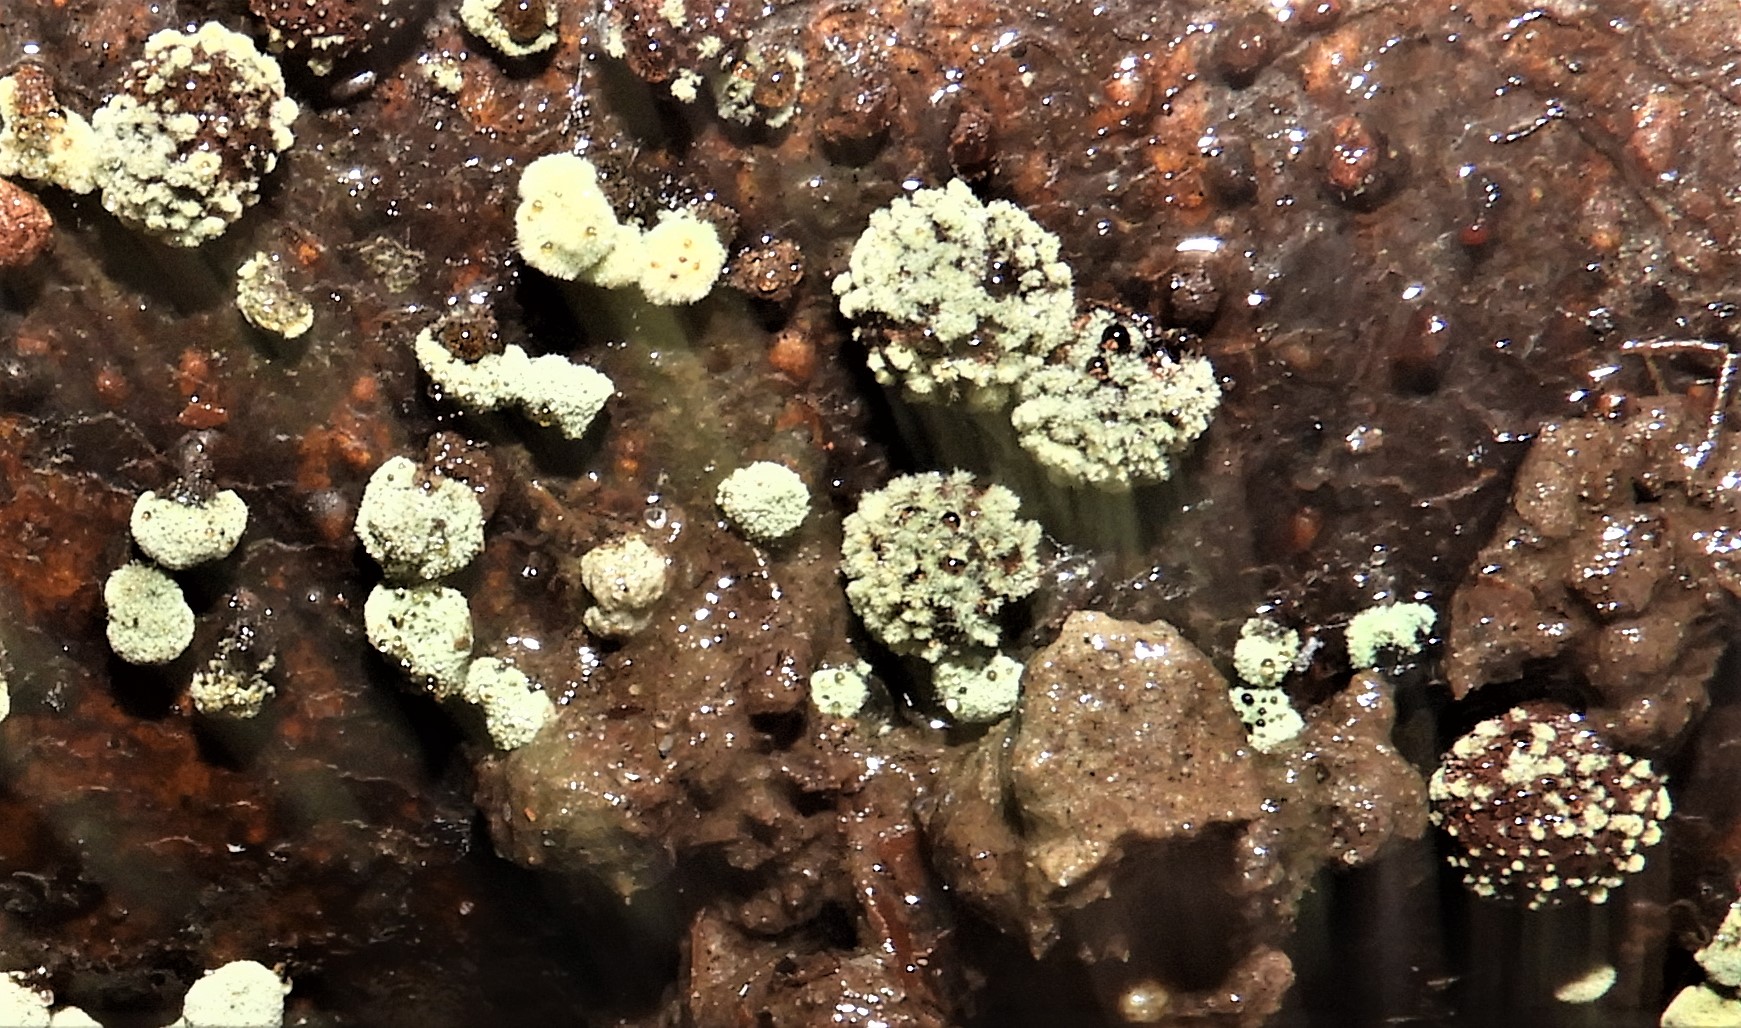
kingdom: Fungi
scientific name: Fungi
